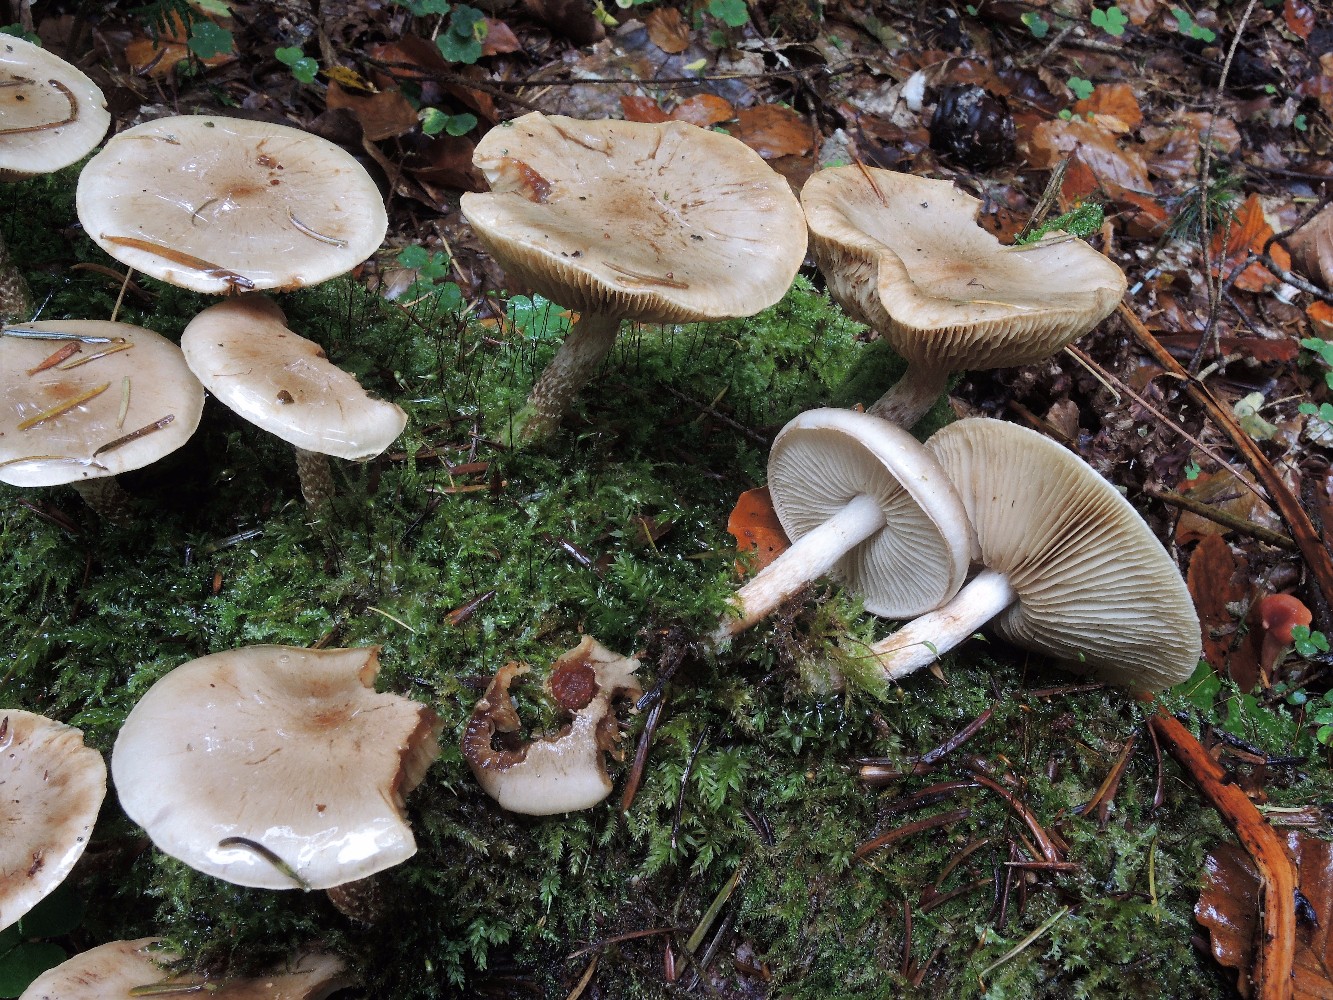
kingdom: Fungi
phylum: Basidiomycota
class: Agaricomycetes
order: Agaricales
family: Strophariaceae
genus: Pholiota
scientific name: Pholiota lenta
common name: løv-skælhat
